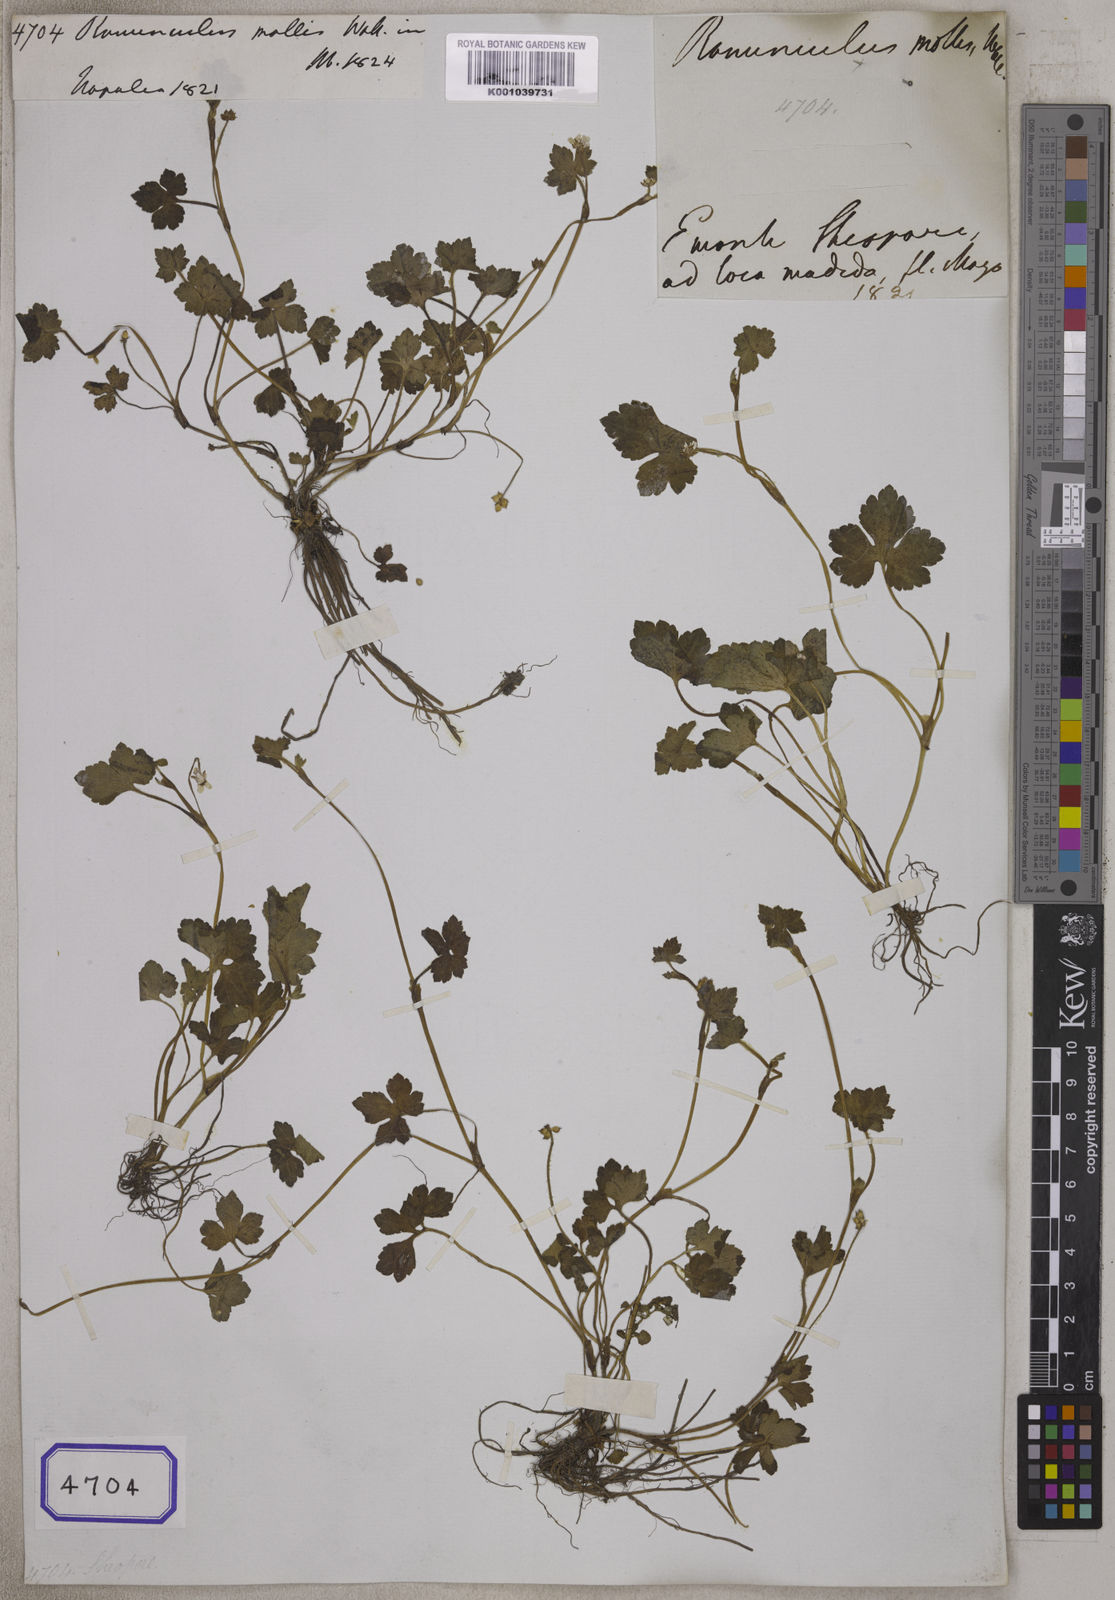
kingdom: Plantae
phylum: Tracheophyta
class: Magnoliopsida
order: Ranunculales
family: Ranunculaceae
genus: Ranunculus
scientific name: Ranunculus
